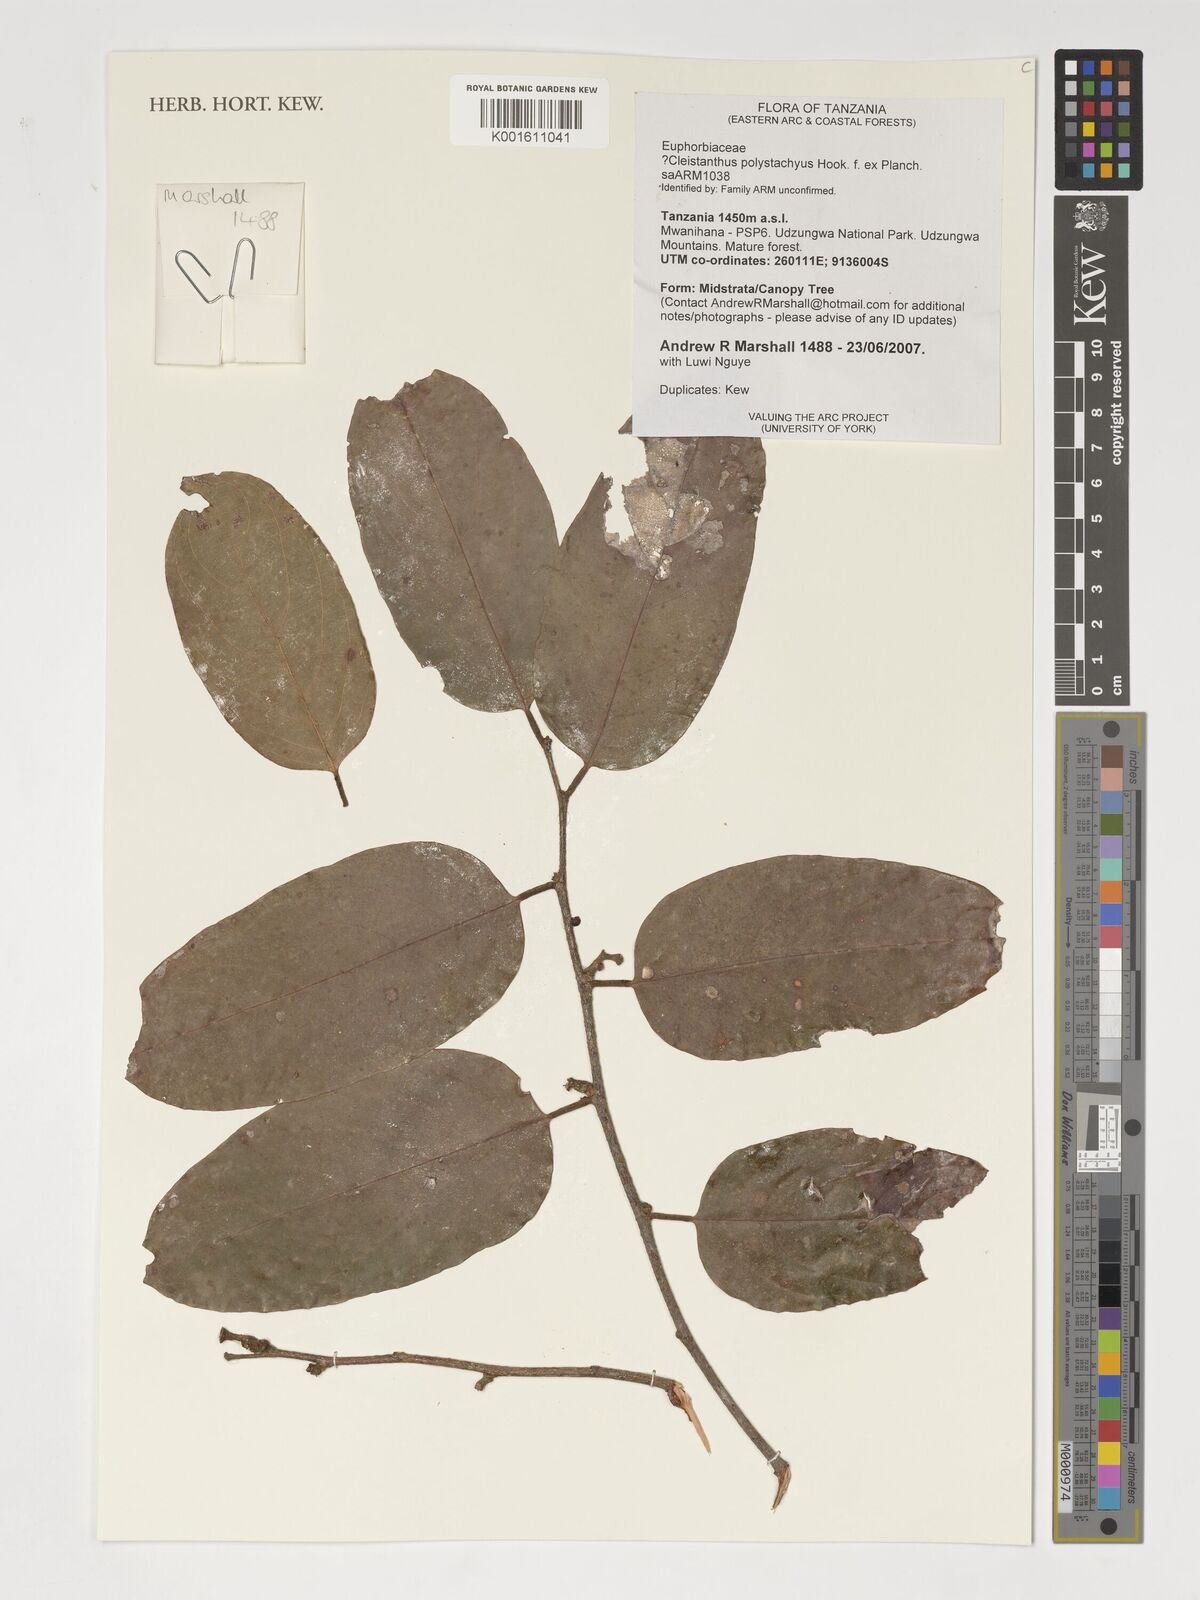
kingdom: Plantae
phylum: Tracheophyta
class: Magnoliopsida
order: Malpighiales
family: Phyllanthaceae
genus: Cleistanthus
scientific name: Cleistanthus polystachyus
